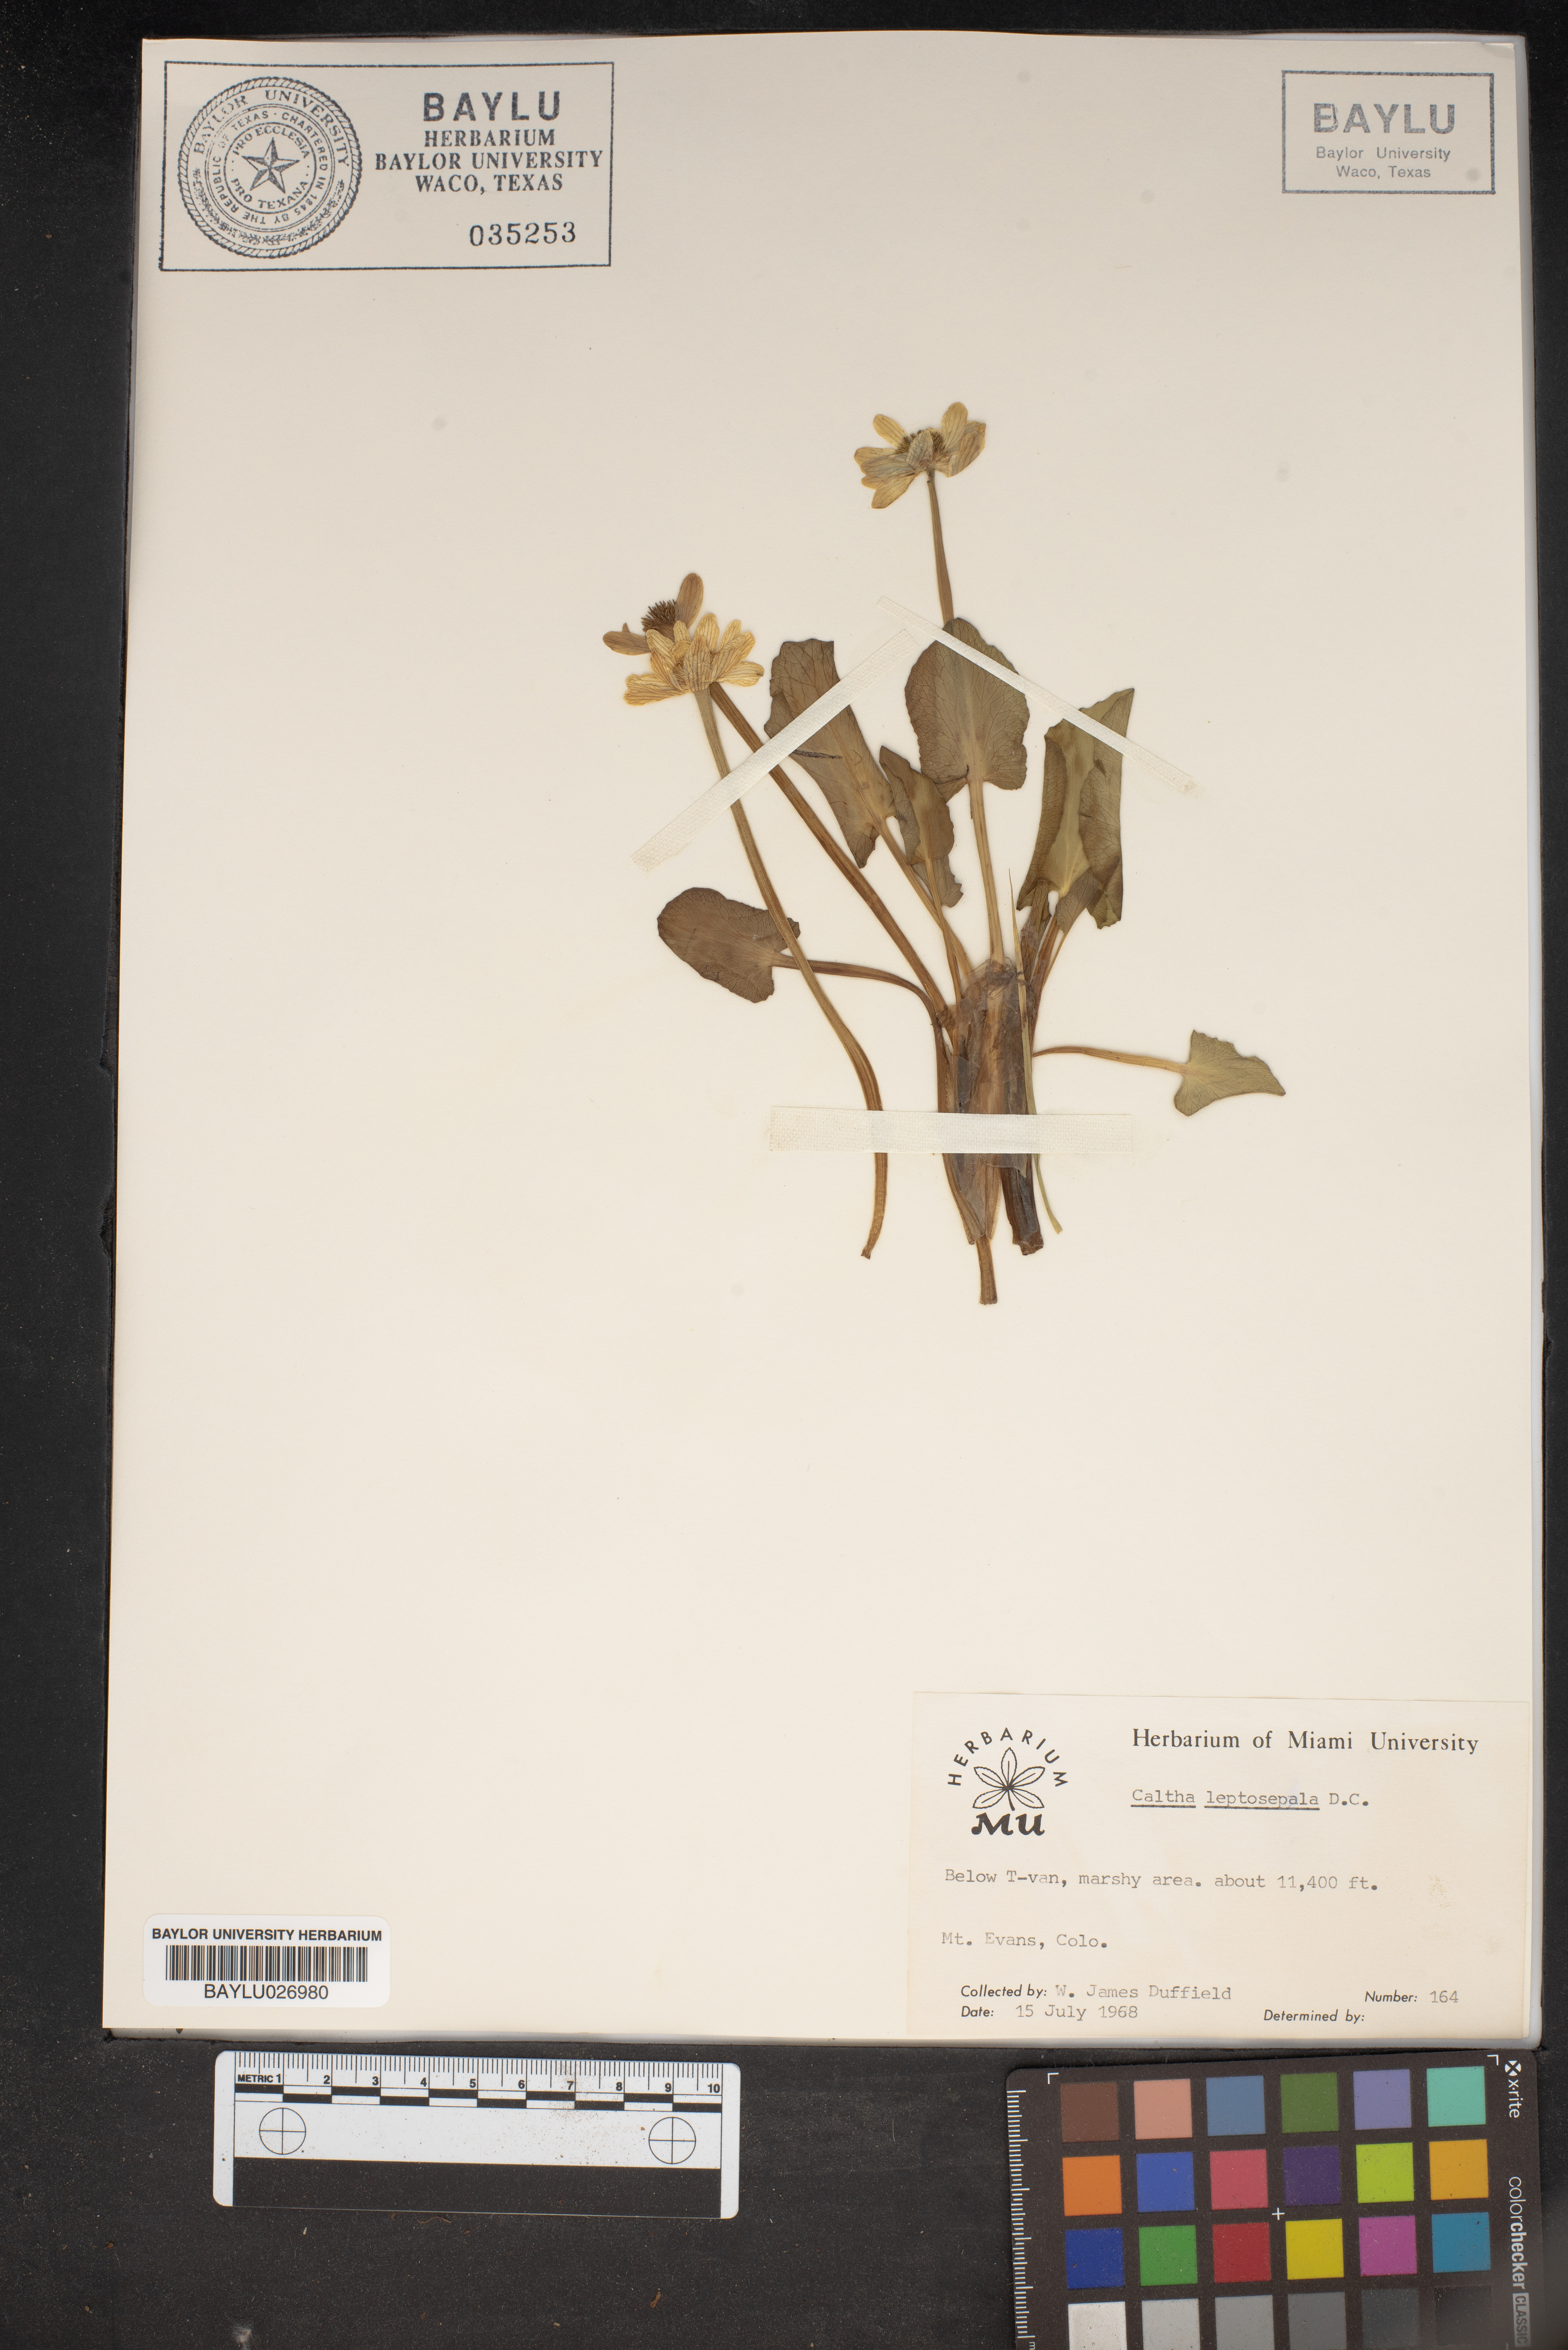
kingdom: Plantae
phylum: Tracheophyta
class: Magnoliopsida
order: Ranunculales
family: Ranunculaceae
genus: Caltha
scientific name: Caltha leptosepala
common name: Elkslip
